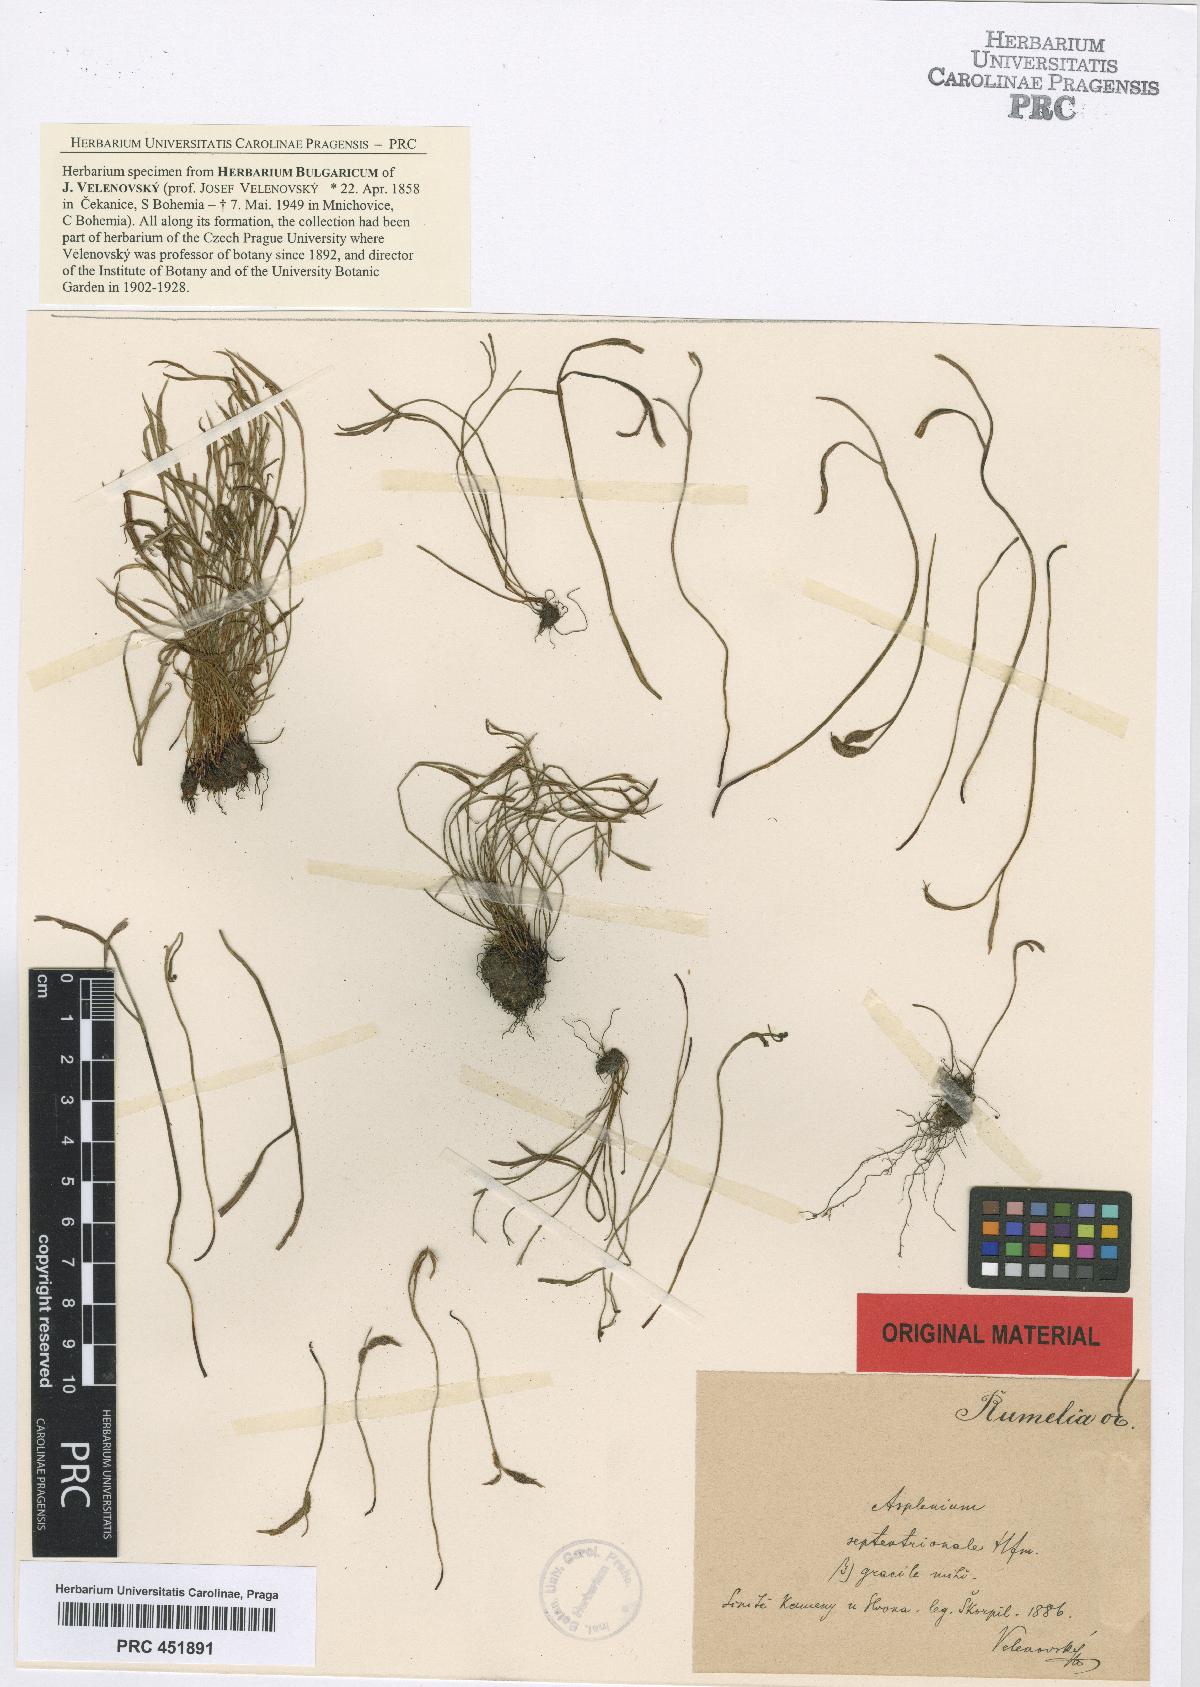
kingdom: Plantae
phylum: Tracheophyta
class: Polypodiopsida
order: Polypodiales
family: Aspleniaceae
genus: Asplenium
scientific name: Asplenium septentrionale
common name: Forked spleenwort
